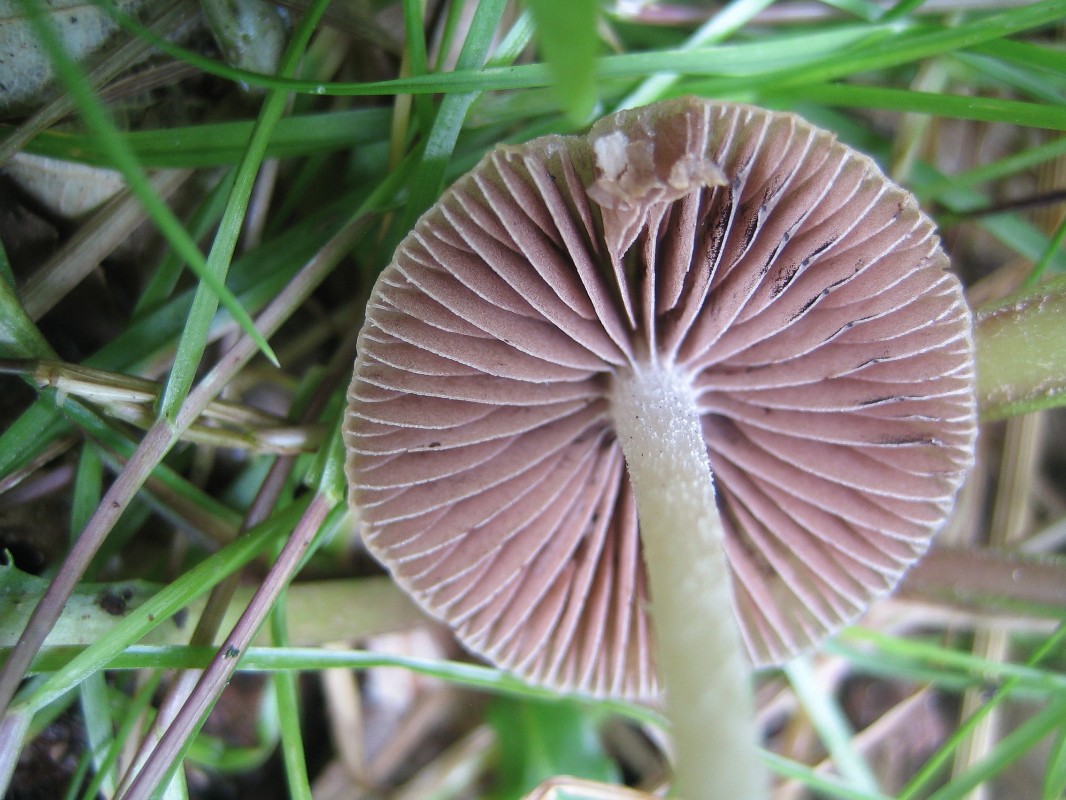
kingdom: Fungi
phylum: Basidiomycota
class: Agaricomycetes
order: Agaricales
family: Psathyrellaceae
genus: Psathyrella
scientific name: Psathyrella
